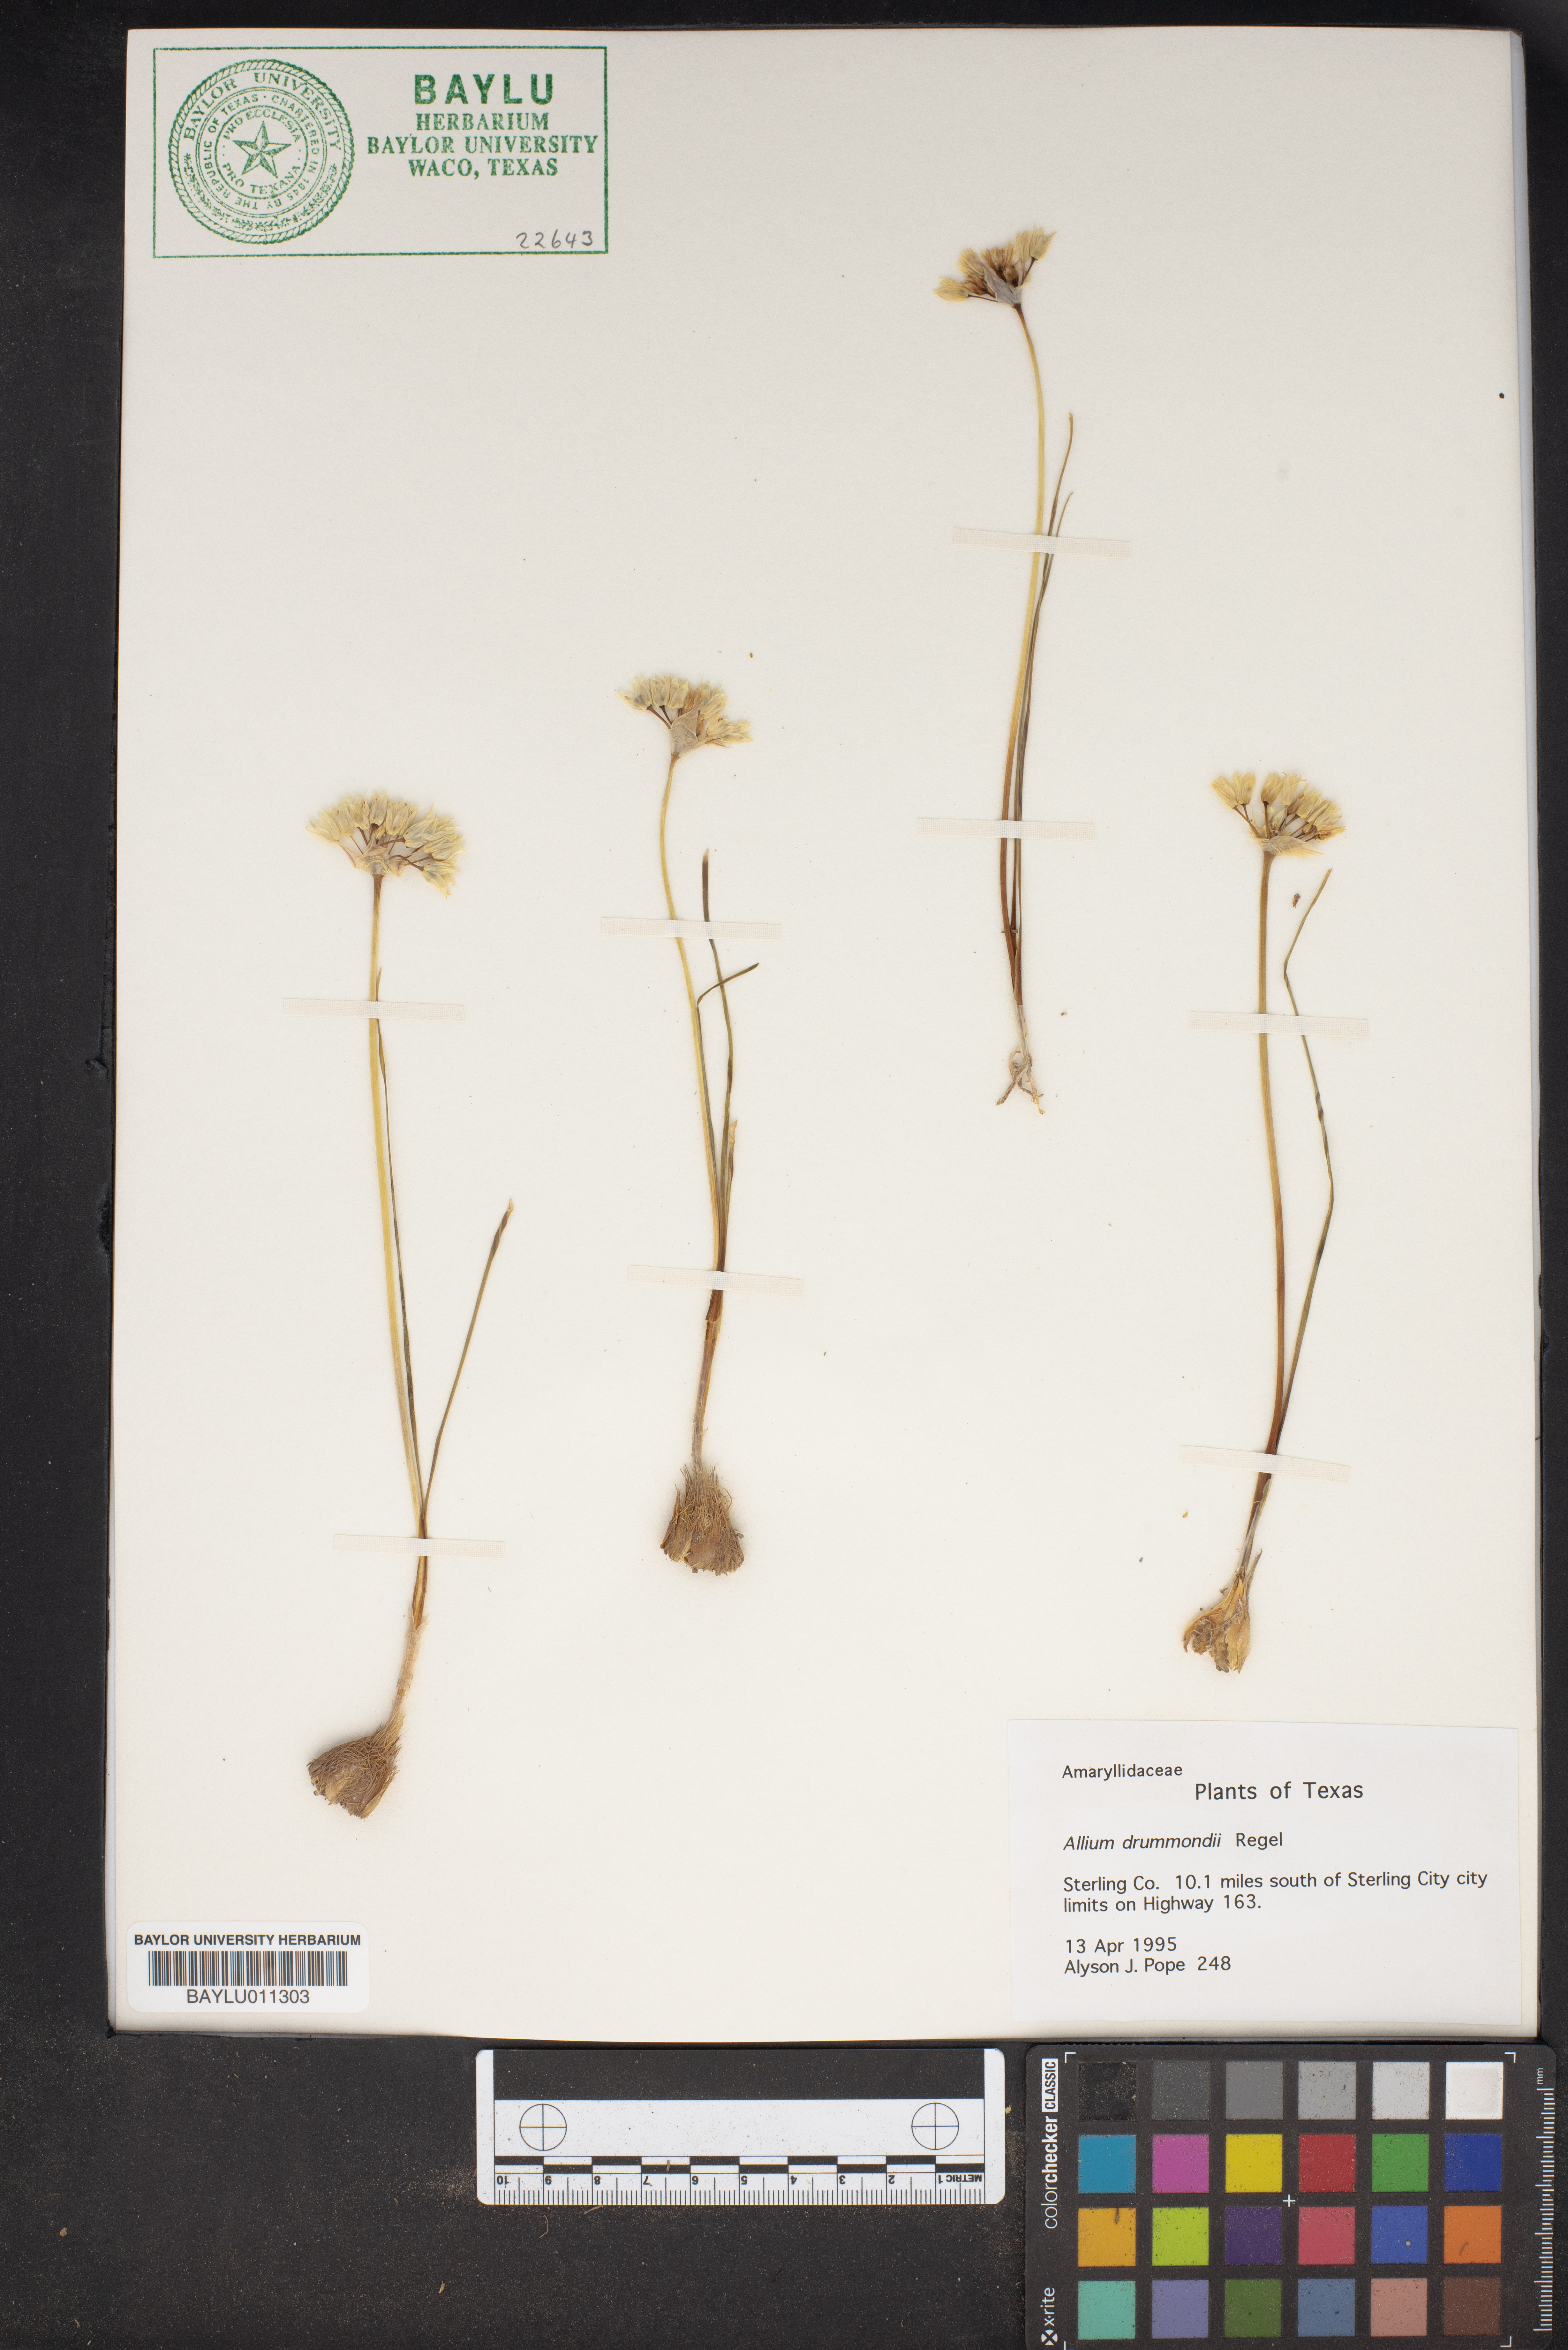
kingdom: Plantae
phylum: Tracheophyta
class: Liliopsida
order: Asparagales
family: Amaryllidaceae
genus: Allium
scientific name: Allium drummondii
